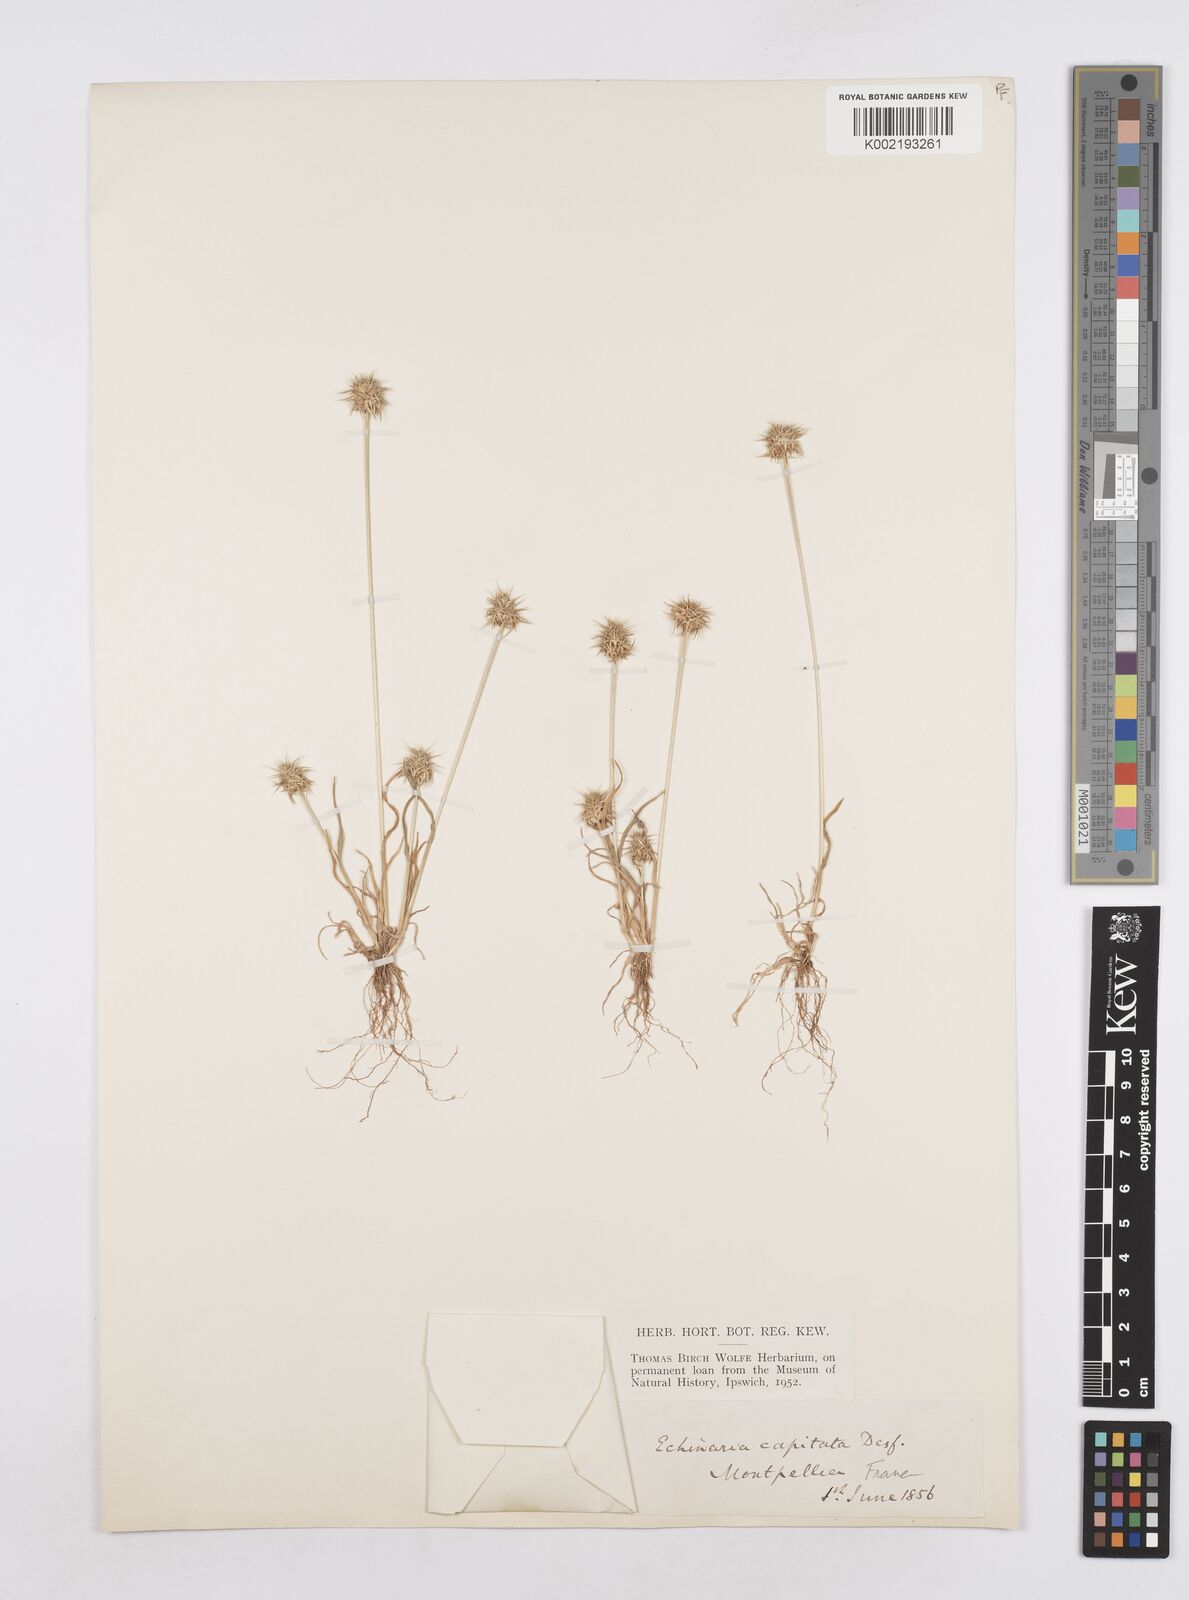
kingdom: Plantae
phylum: Tracheophyta
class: Liliopsida
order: Poales
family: Poaceae
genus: Echinaria
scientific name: Echinaria capitata
